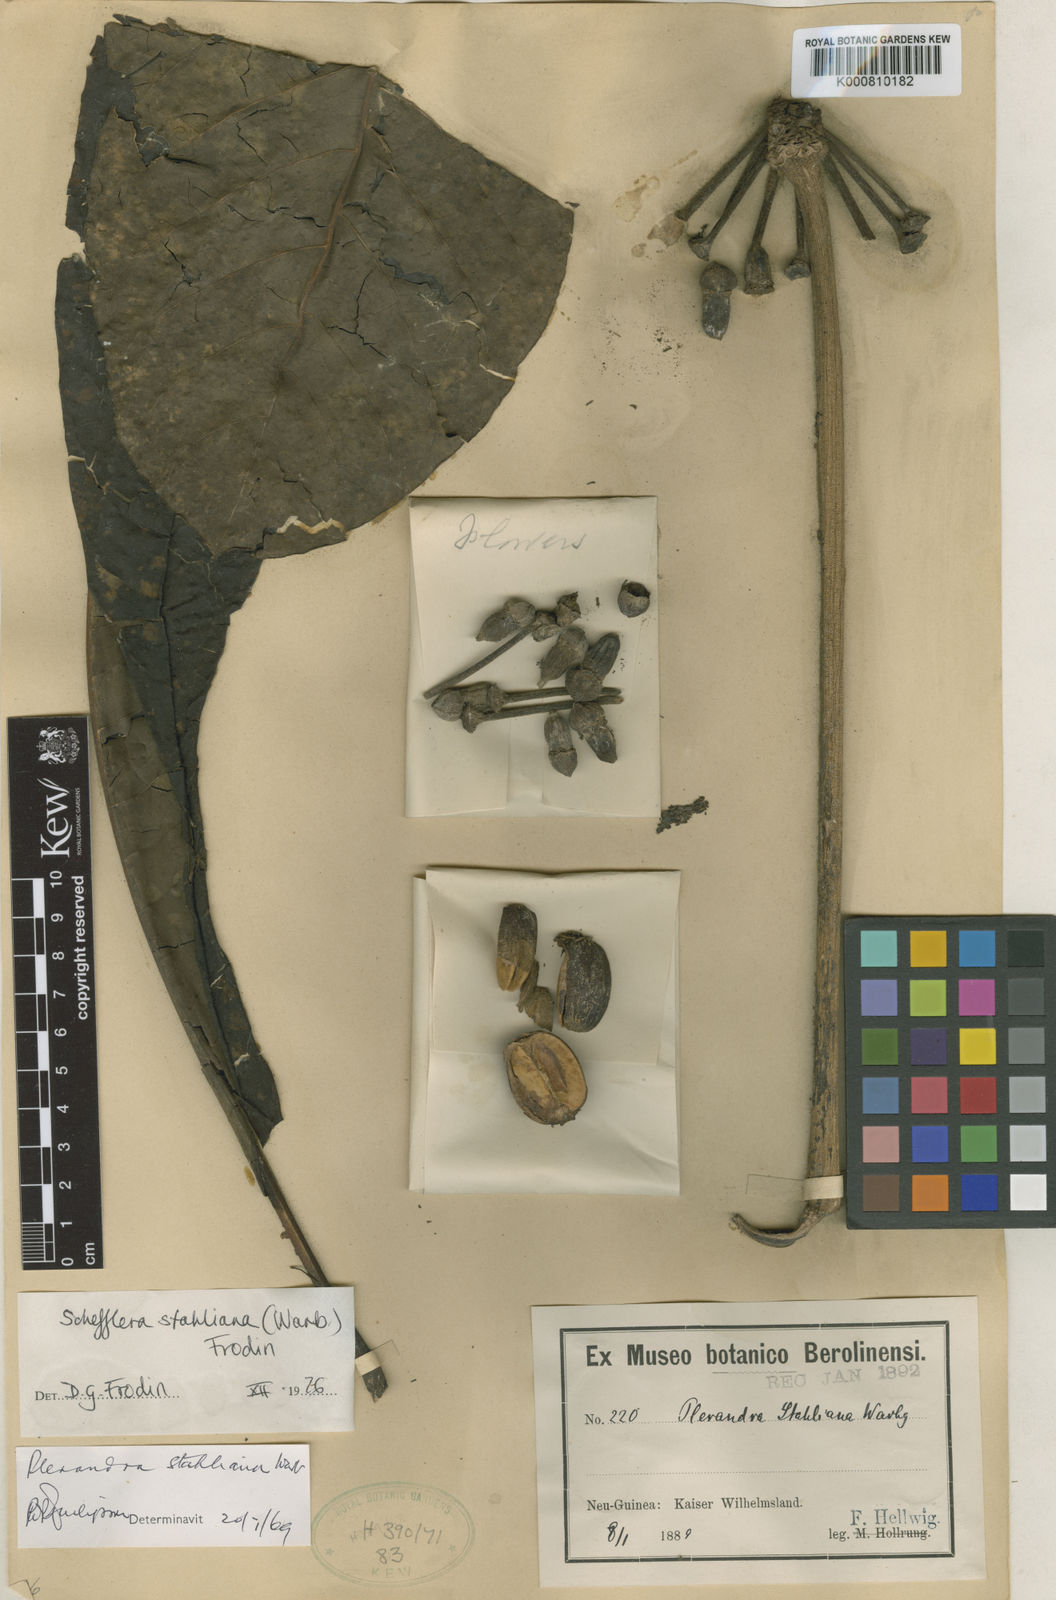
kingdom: Plantae
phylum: Tracheophyta
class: Magnoliopsida
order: Apiales
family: Araliaceae
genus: Plerandra
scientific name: Plerandra stahliana
